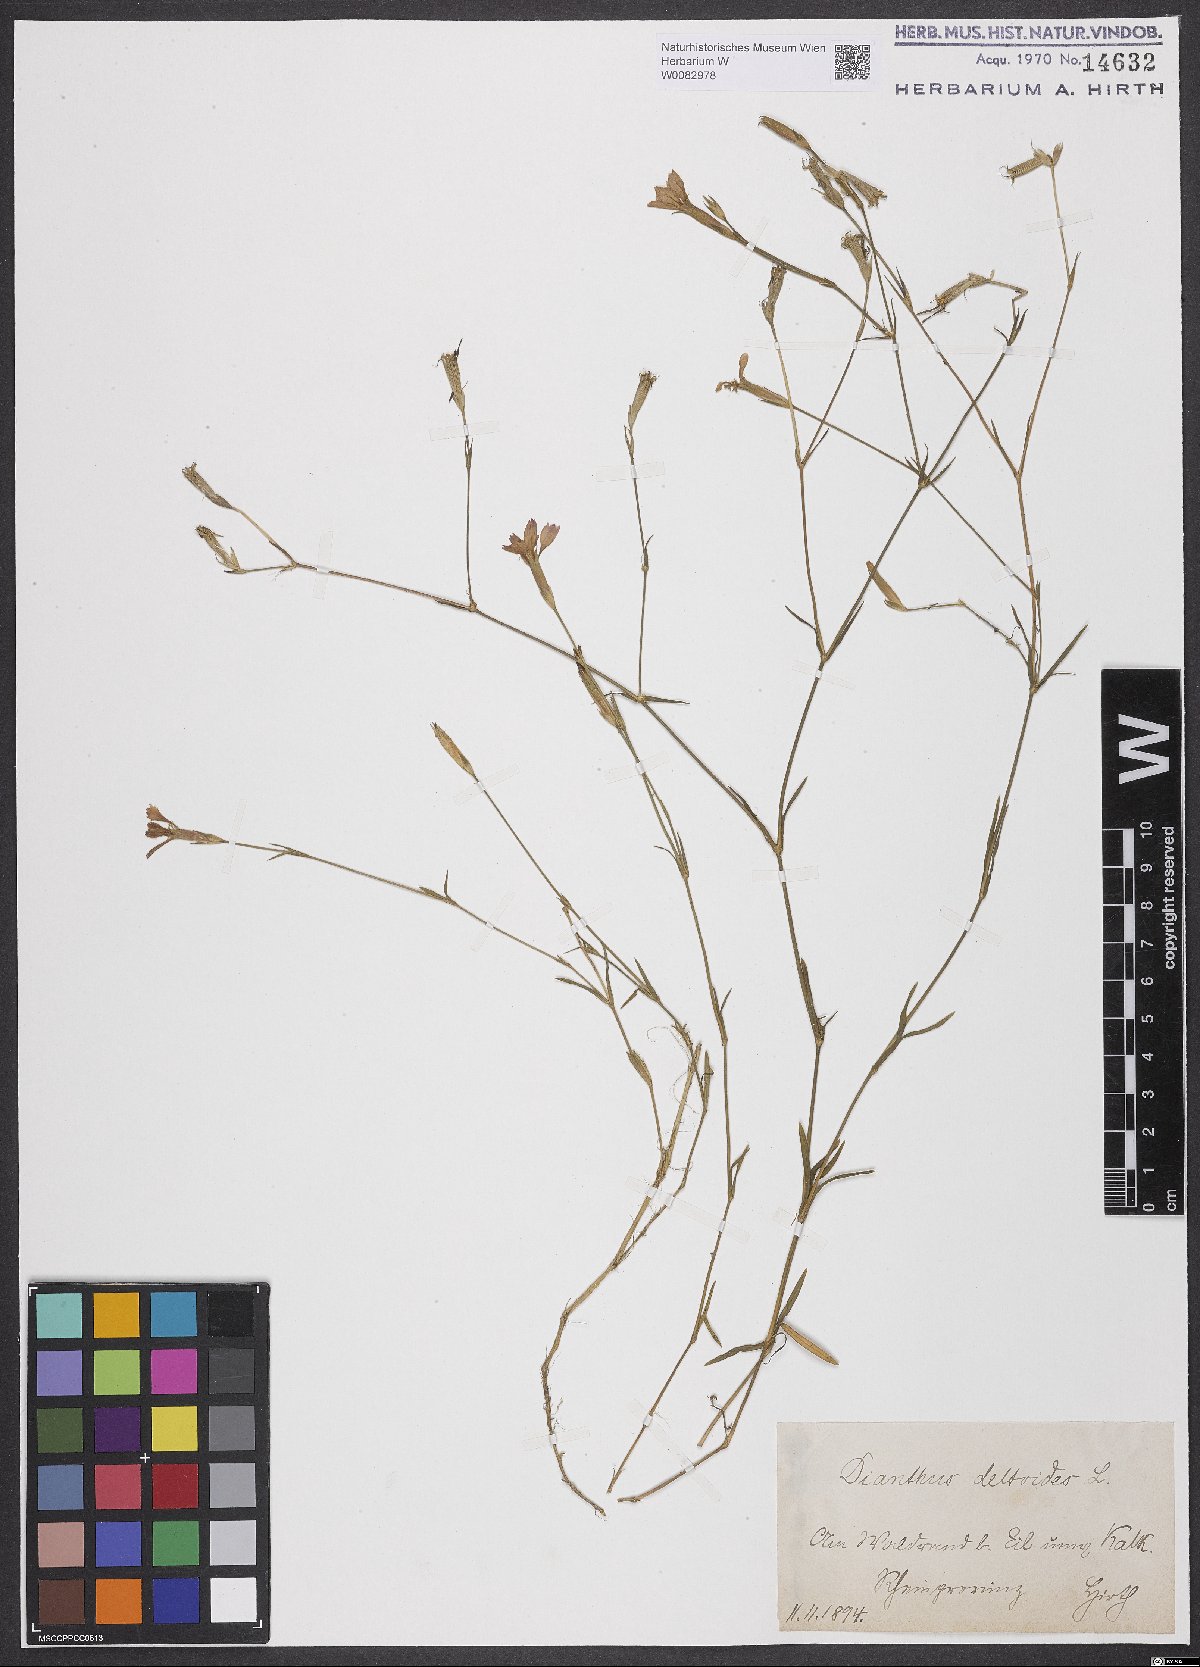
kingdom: Plantae
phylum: Tracheophyta
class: Magnoliopsida
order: Caryophyllales
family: Caryophyllaceae
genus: Dianthus
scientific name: Dianthus deltoides
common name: Maiden pink
